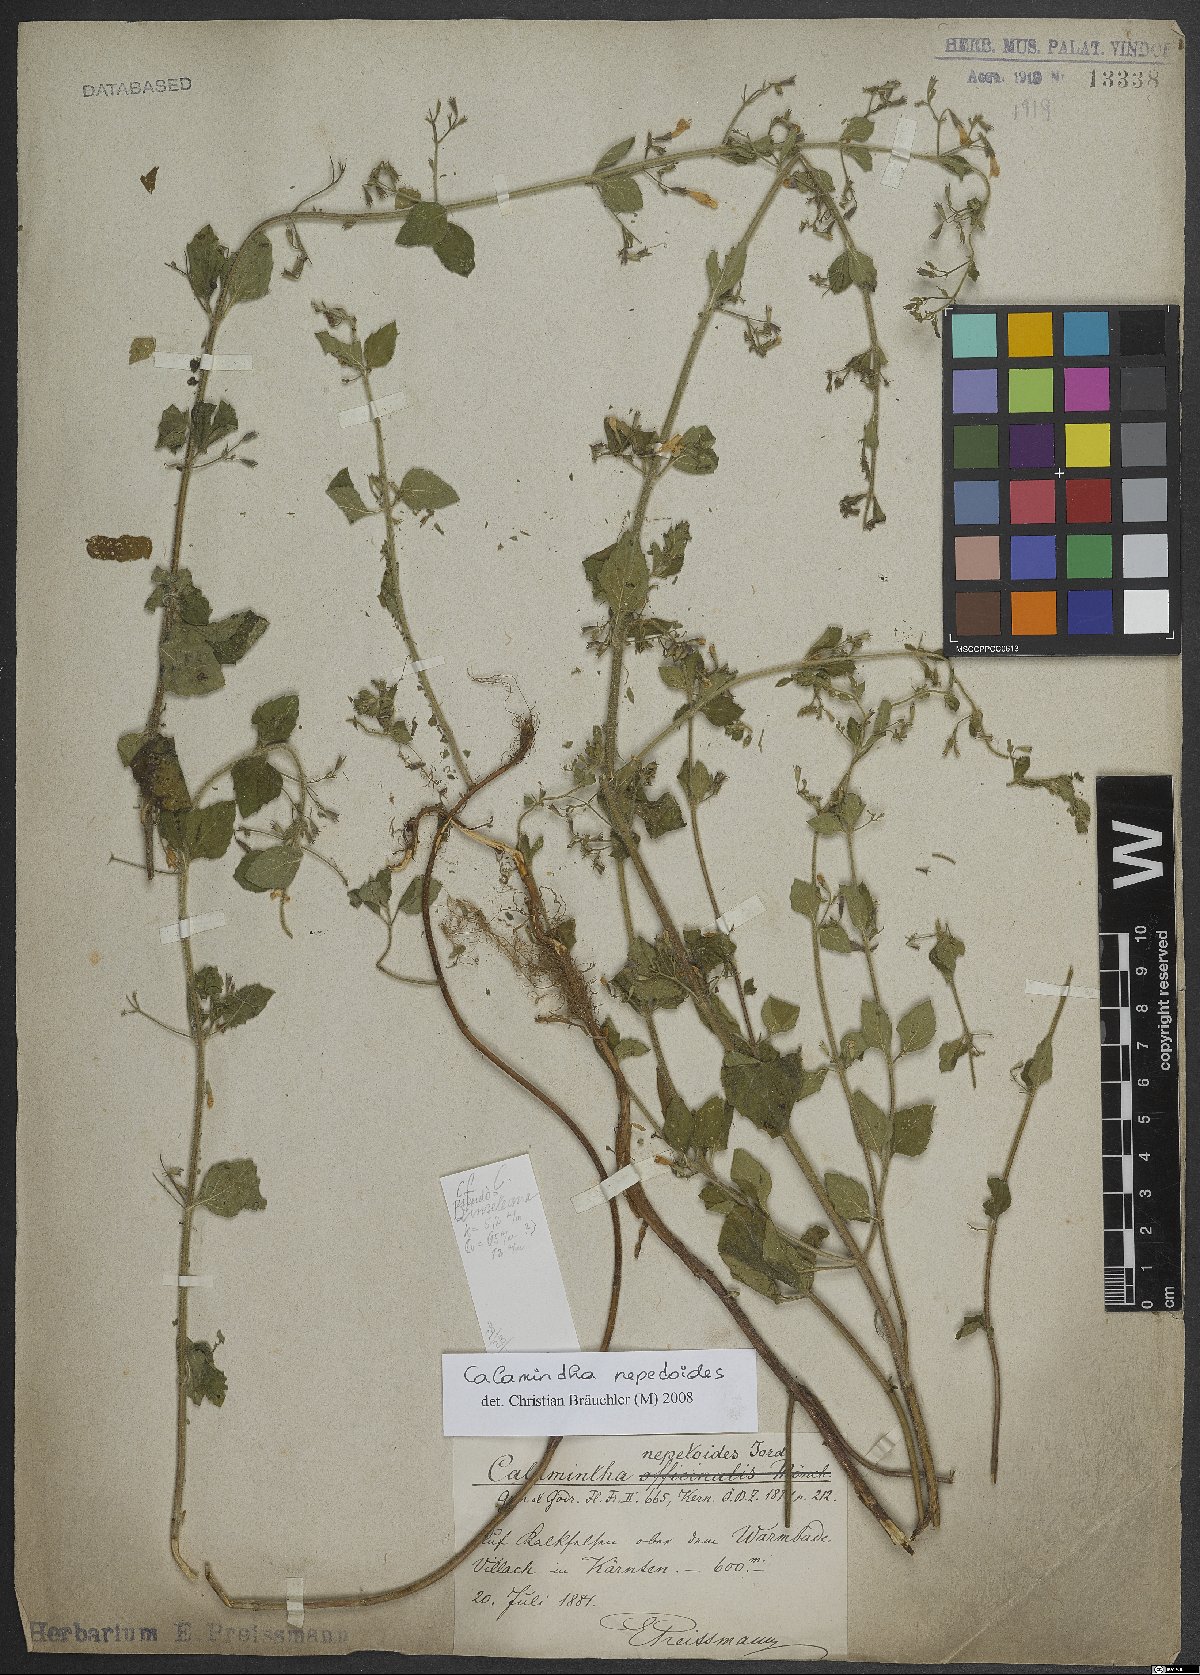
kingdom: Plantae
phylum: Tracheophyta
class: Magnoliopsida
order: Lamiales
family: Lamiaceae
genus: Clinopodium
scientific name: Clinopodium nepeta
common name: Lesser calamint
